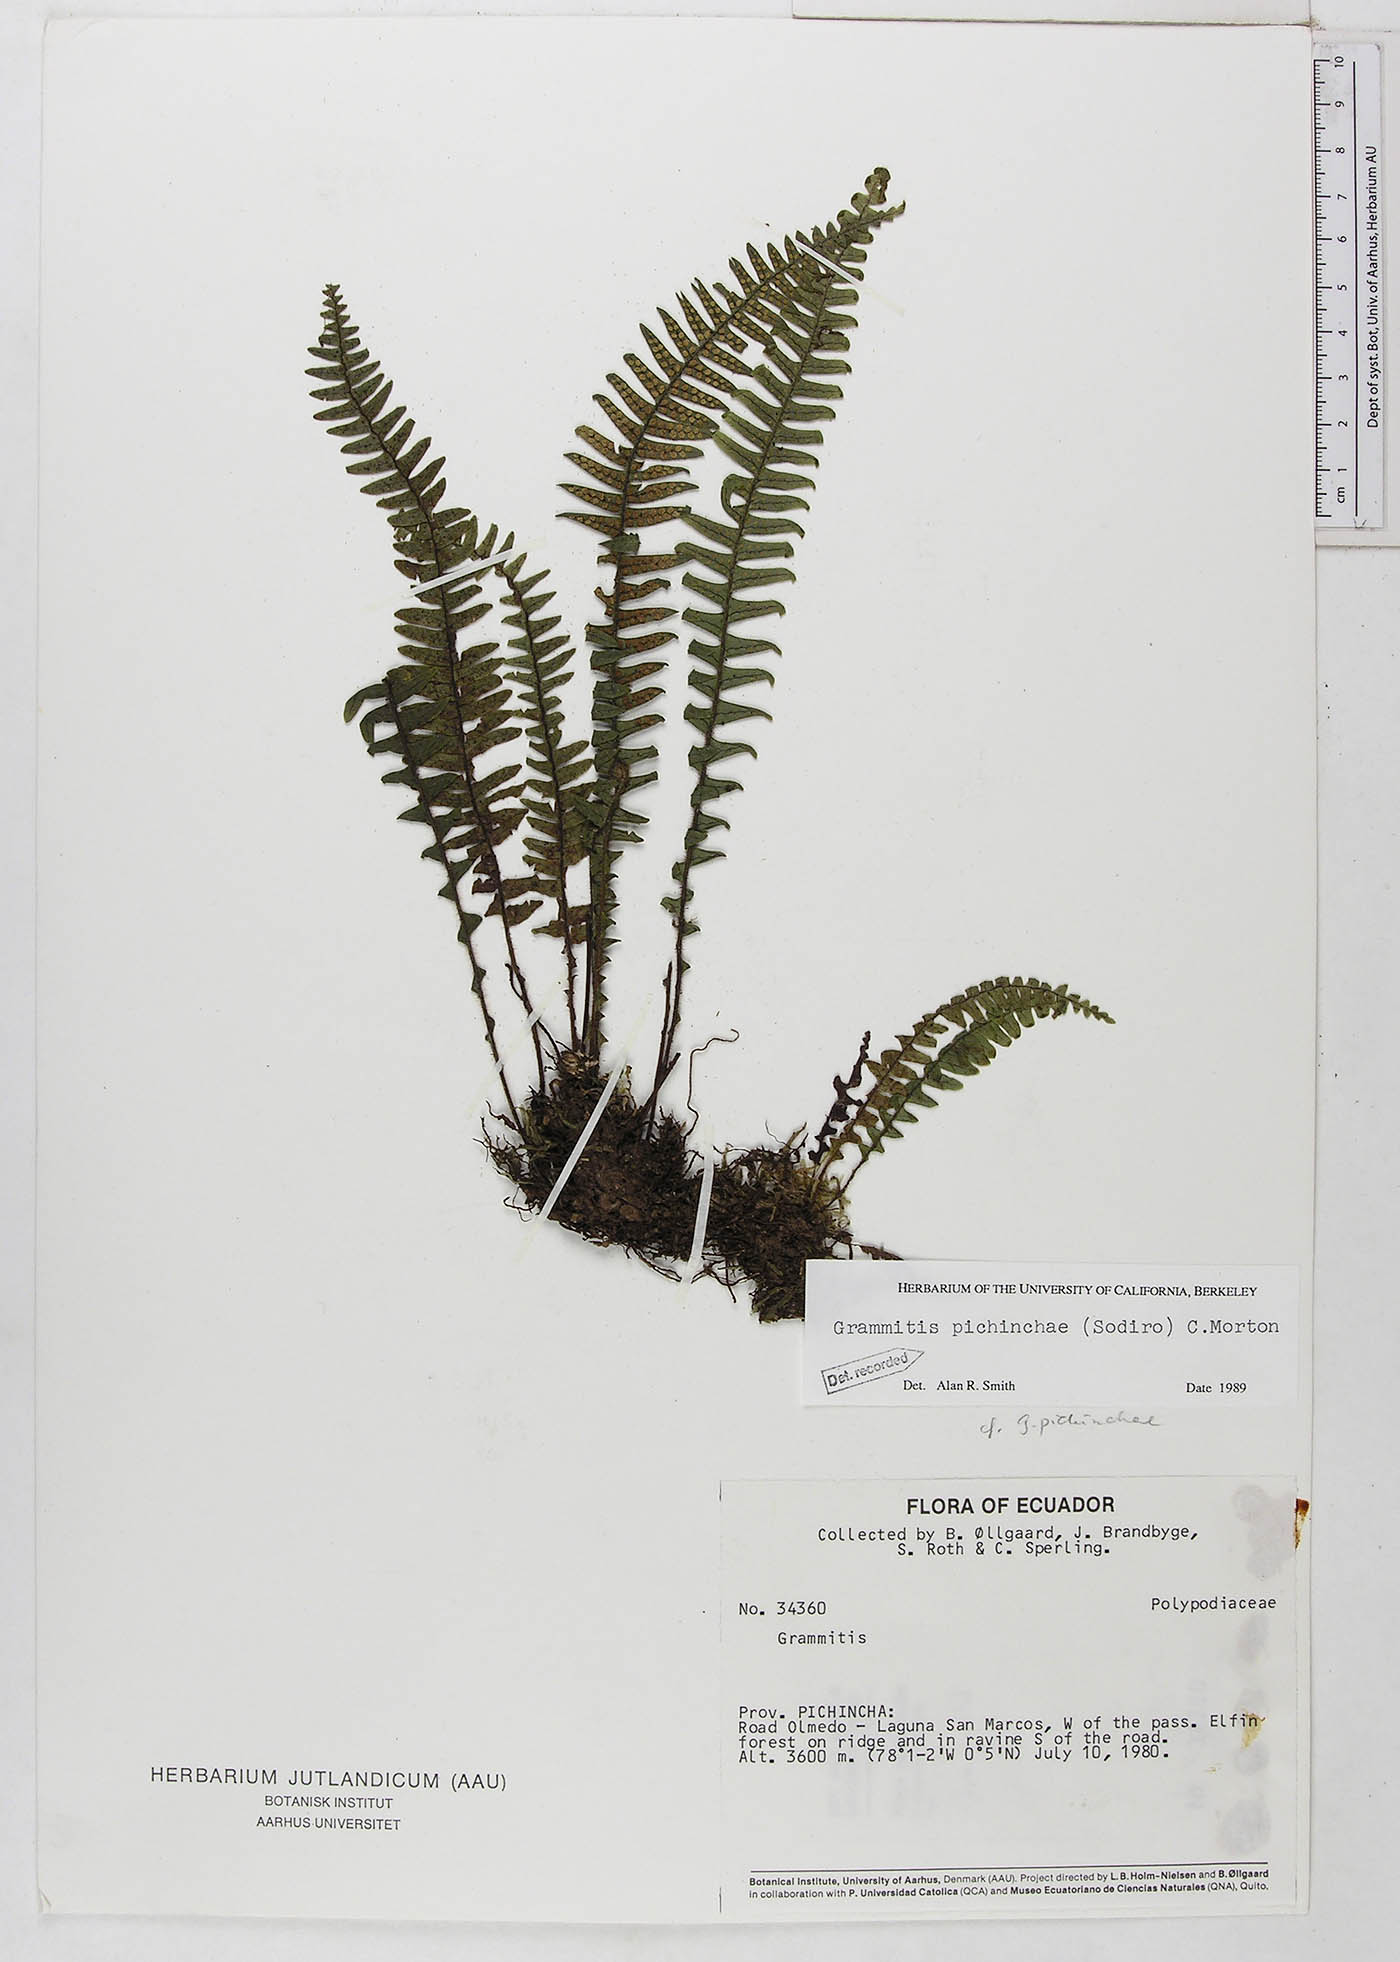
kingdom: Plantae
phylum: Tracheophyta
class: Polypodiopsida
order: Polypodiales
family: Polypodiaceae
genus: Ascogrammitis
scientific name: Ascogrammitis pichinchae
